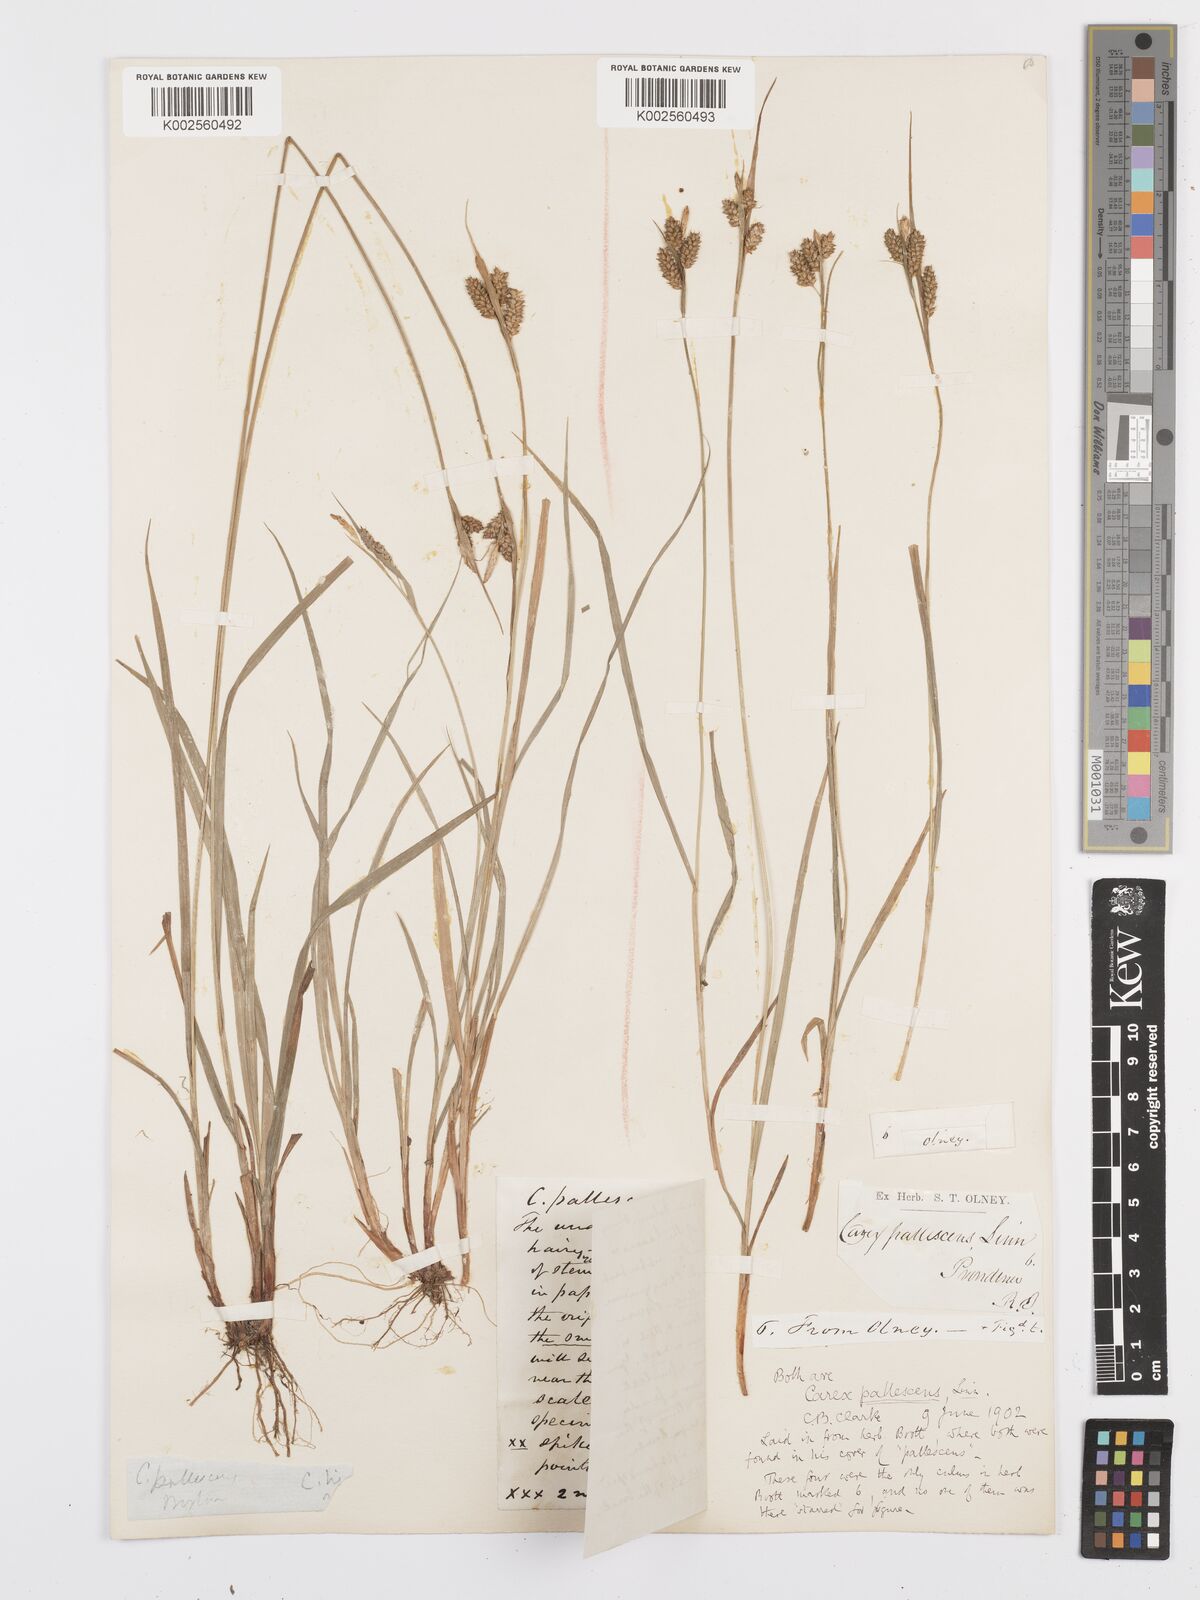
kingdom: Plantae
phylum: Tracheophyta
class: Liliopsida
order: Poales
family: Cyperaceae
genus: Carex
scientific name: Carex pallescens
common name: Pale sedge
